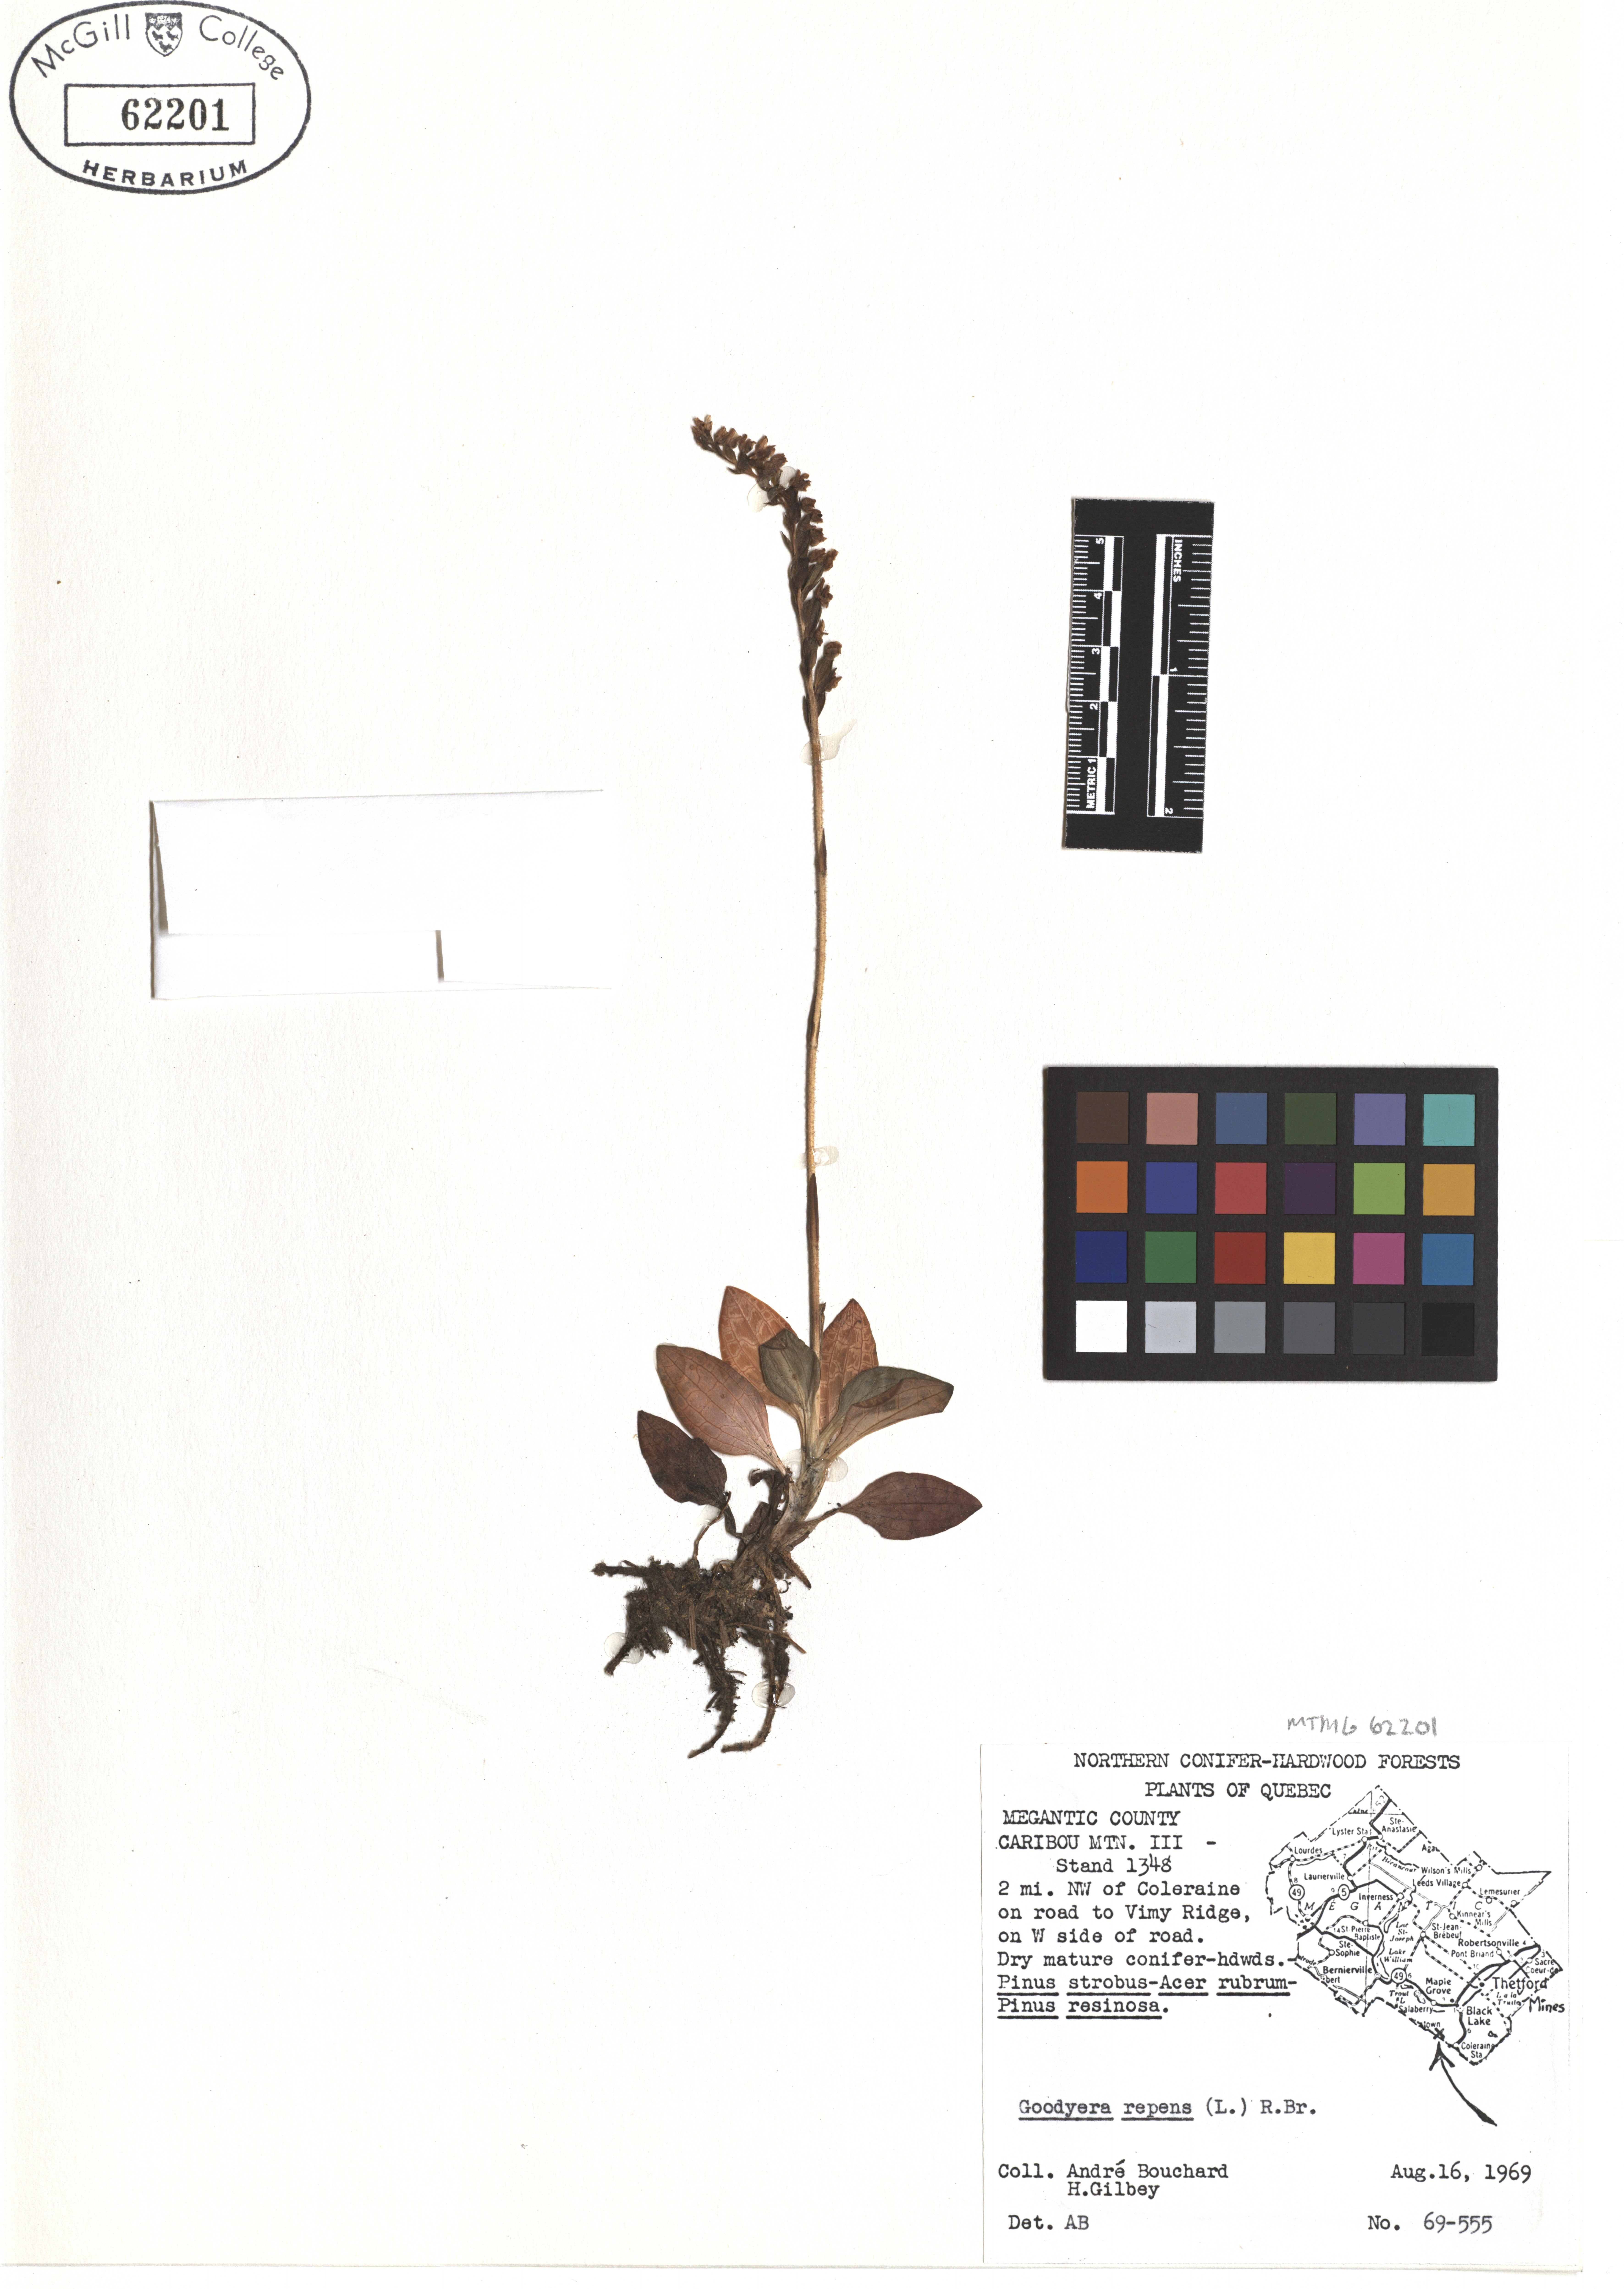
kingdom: Plantae
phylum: Tracheophyta
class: Liliopsida
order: Asparagales
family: Orchidaceae
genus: Goodyera
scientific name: Goodyera repens
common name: Creeping lady's-tresses
